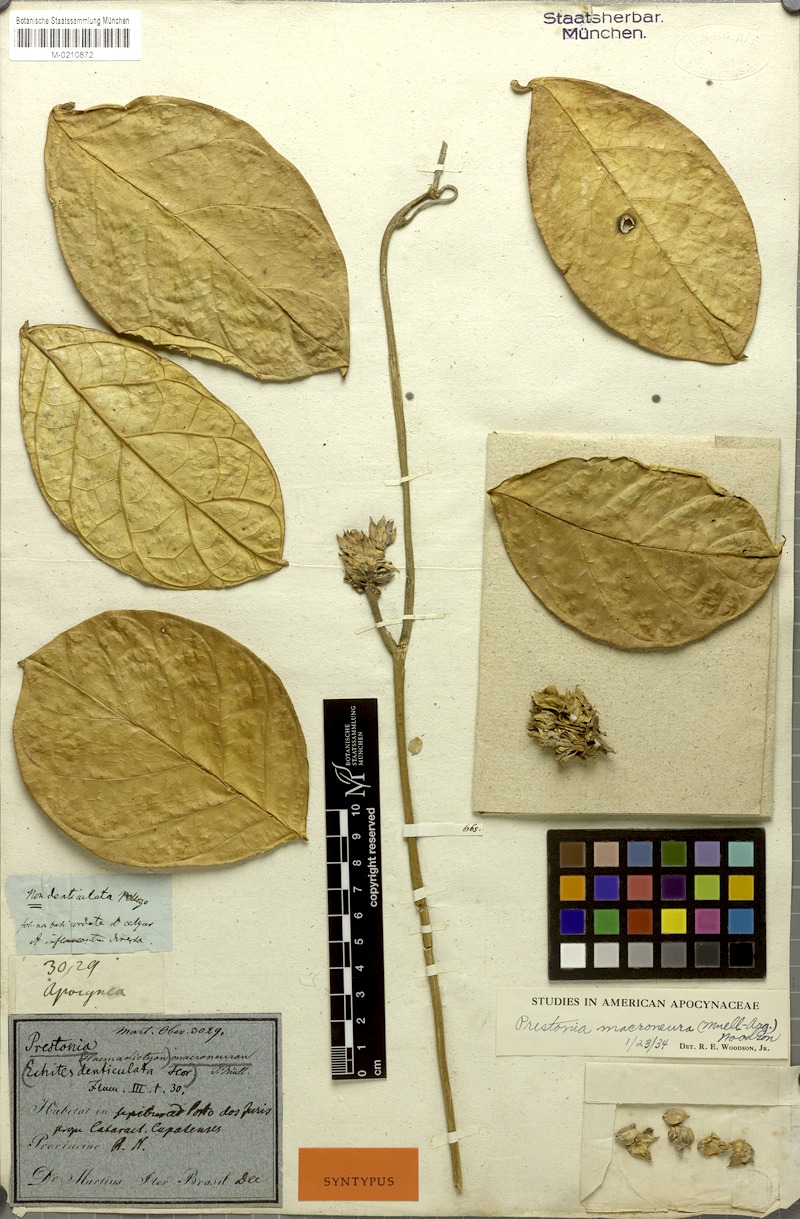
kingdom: Plantae
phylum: Tracheophyta
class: Magnoliopsida
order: Gentianales
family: Apocynaceae
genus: Prestonia
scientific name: Prestonia denticulata
